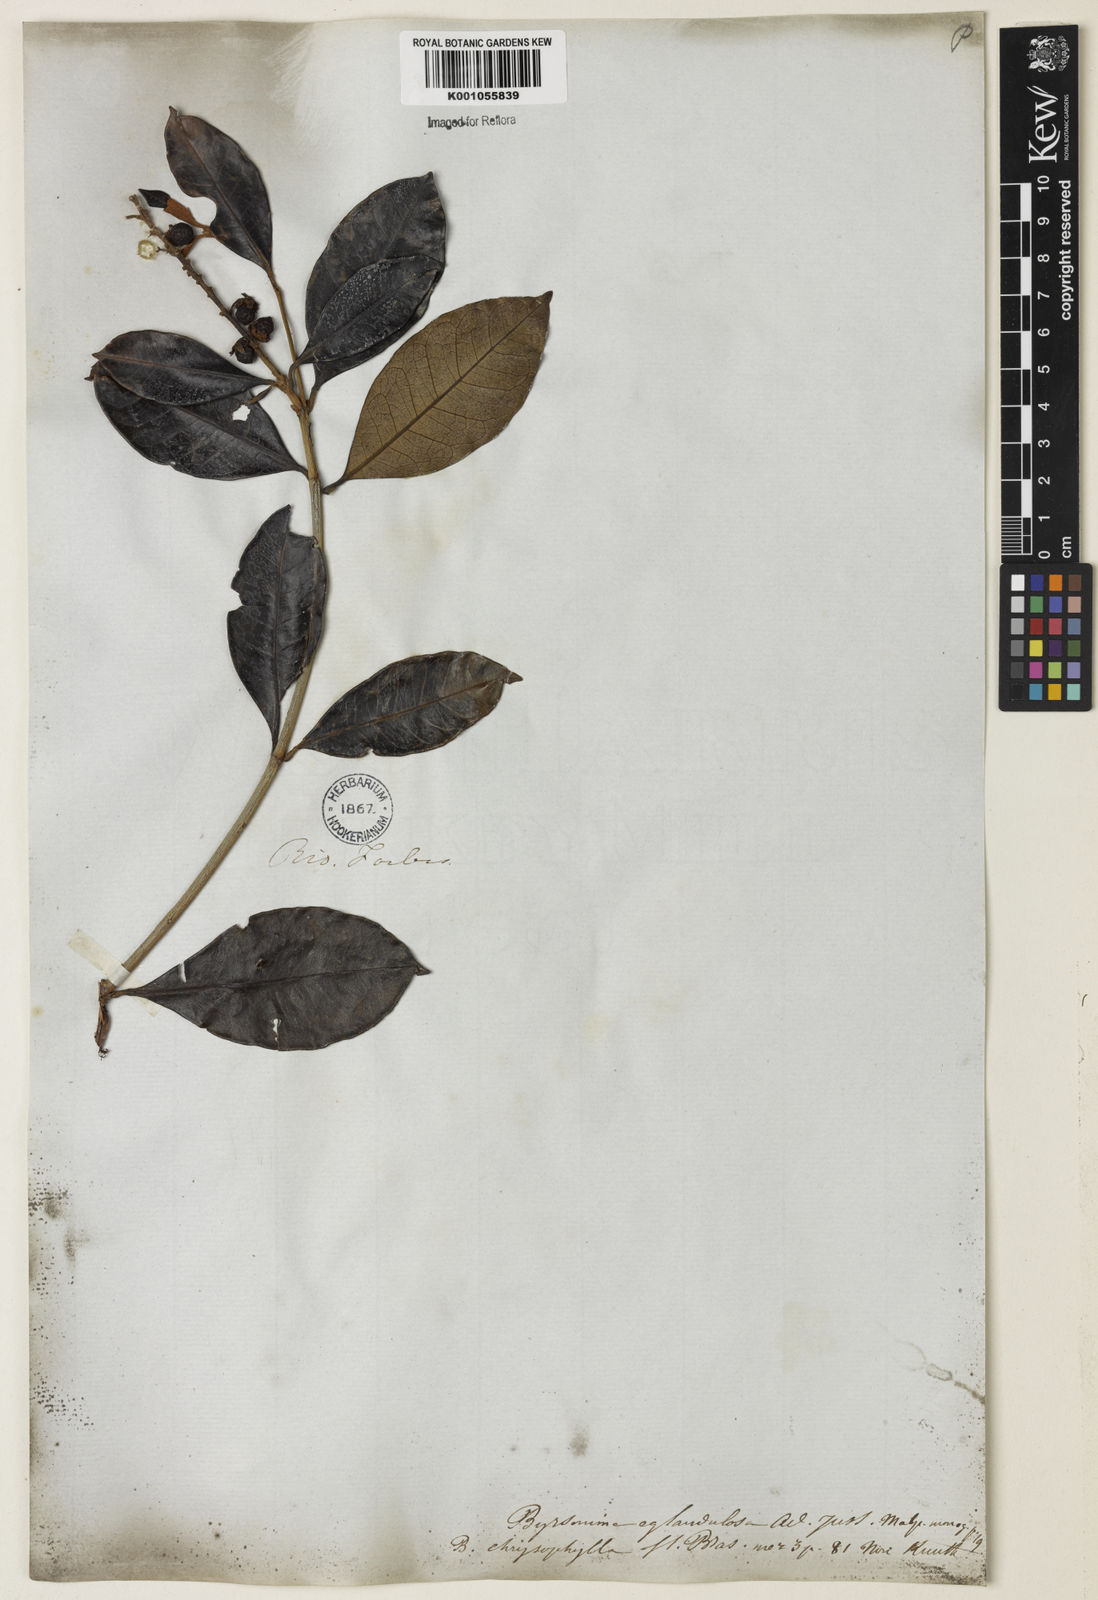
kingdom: Plantae
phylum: Tracheophyta
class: Magnoliopsida
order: Malpighiales
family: Malpighiaceae
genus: Byrsonima
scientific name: Byrsonima sericea
